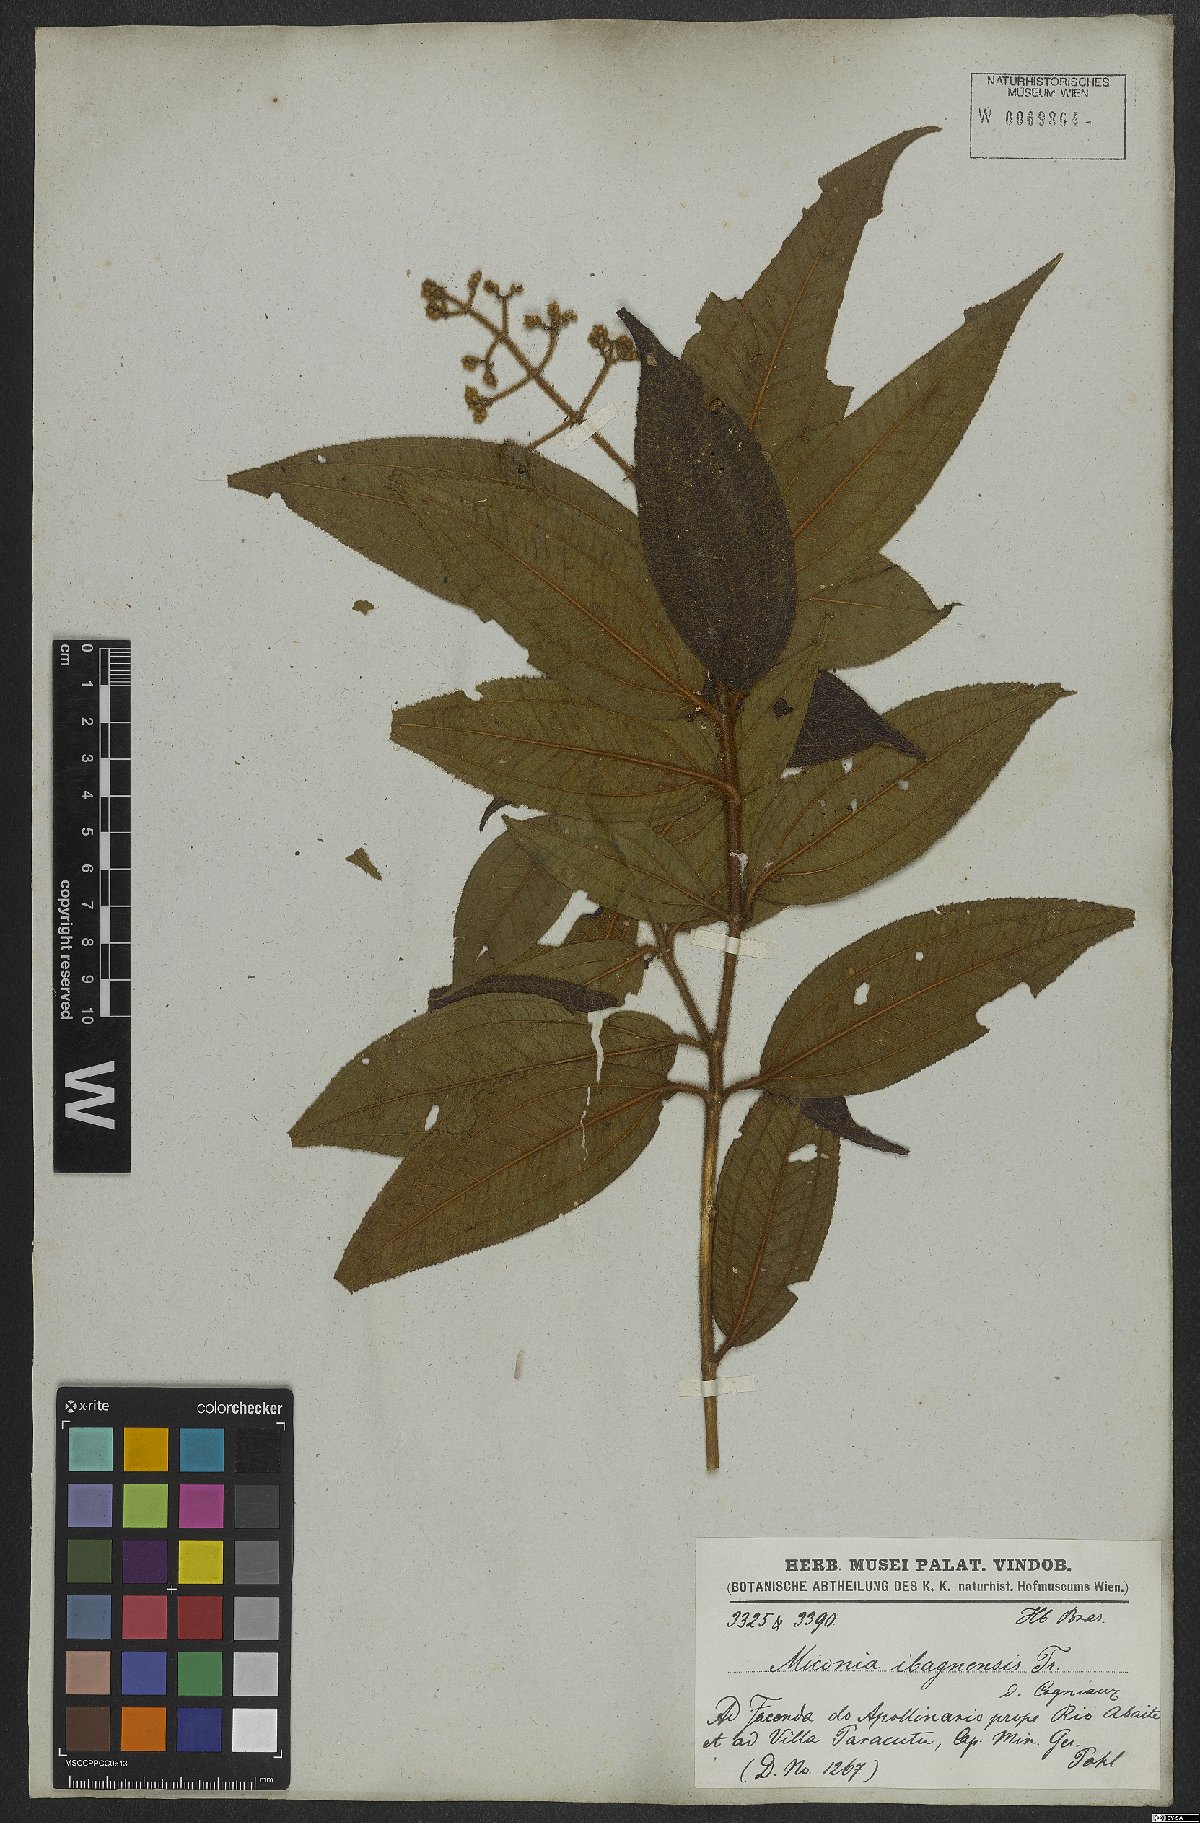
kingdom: Plantae
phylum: Tracheophyta
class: Magnoliopsida
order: Myrtales
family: Melastomataceae
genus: Miconia
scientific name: Miconia ibaguensis
